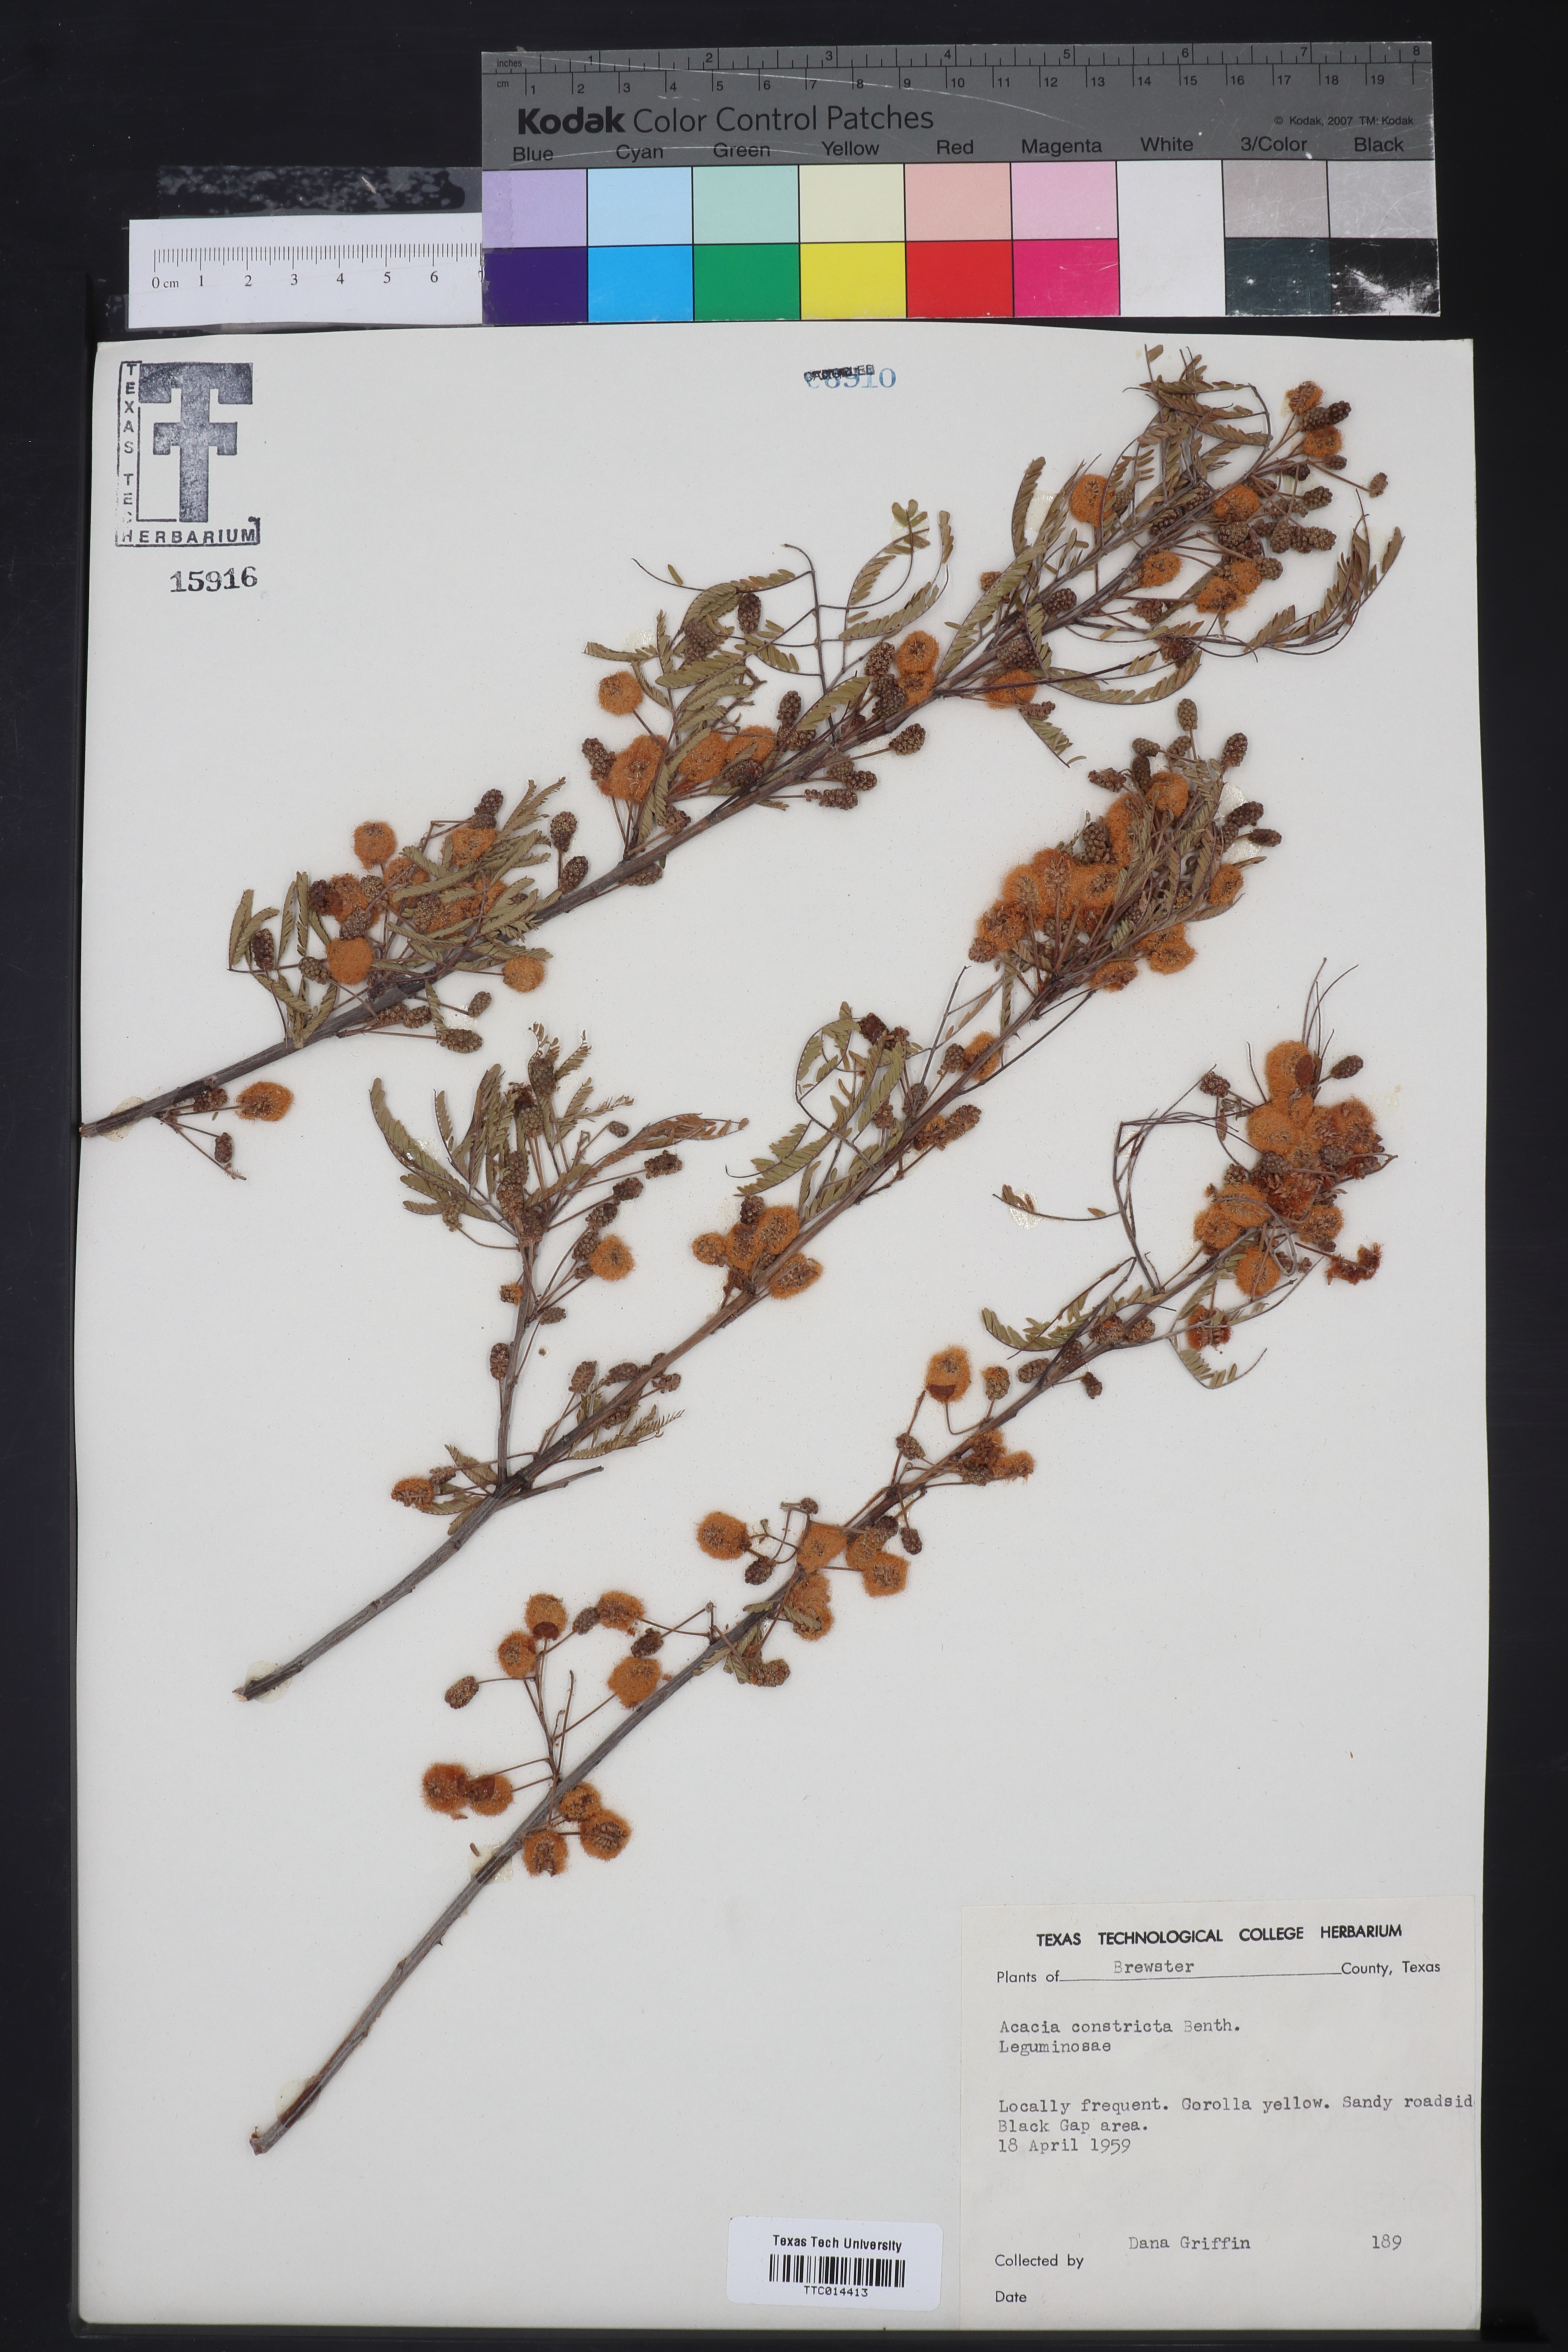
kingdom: Plantae
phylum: Tracheophyta
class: Magnoliopsida
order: Fabales
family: Fabaceae
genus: Vachellia
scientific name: Vachellia constricta
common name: Mescat acacia
